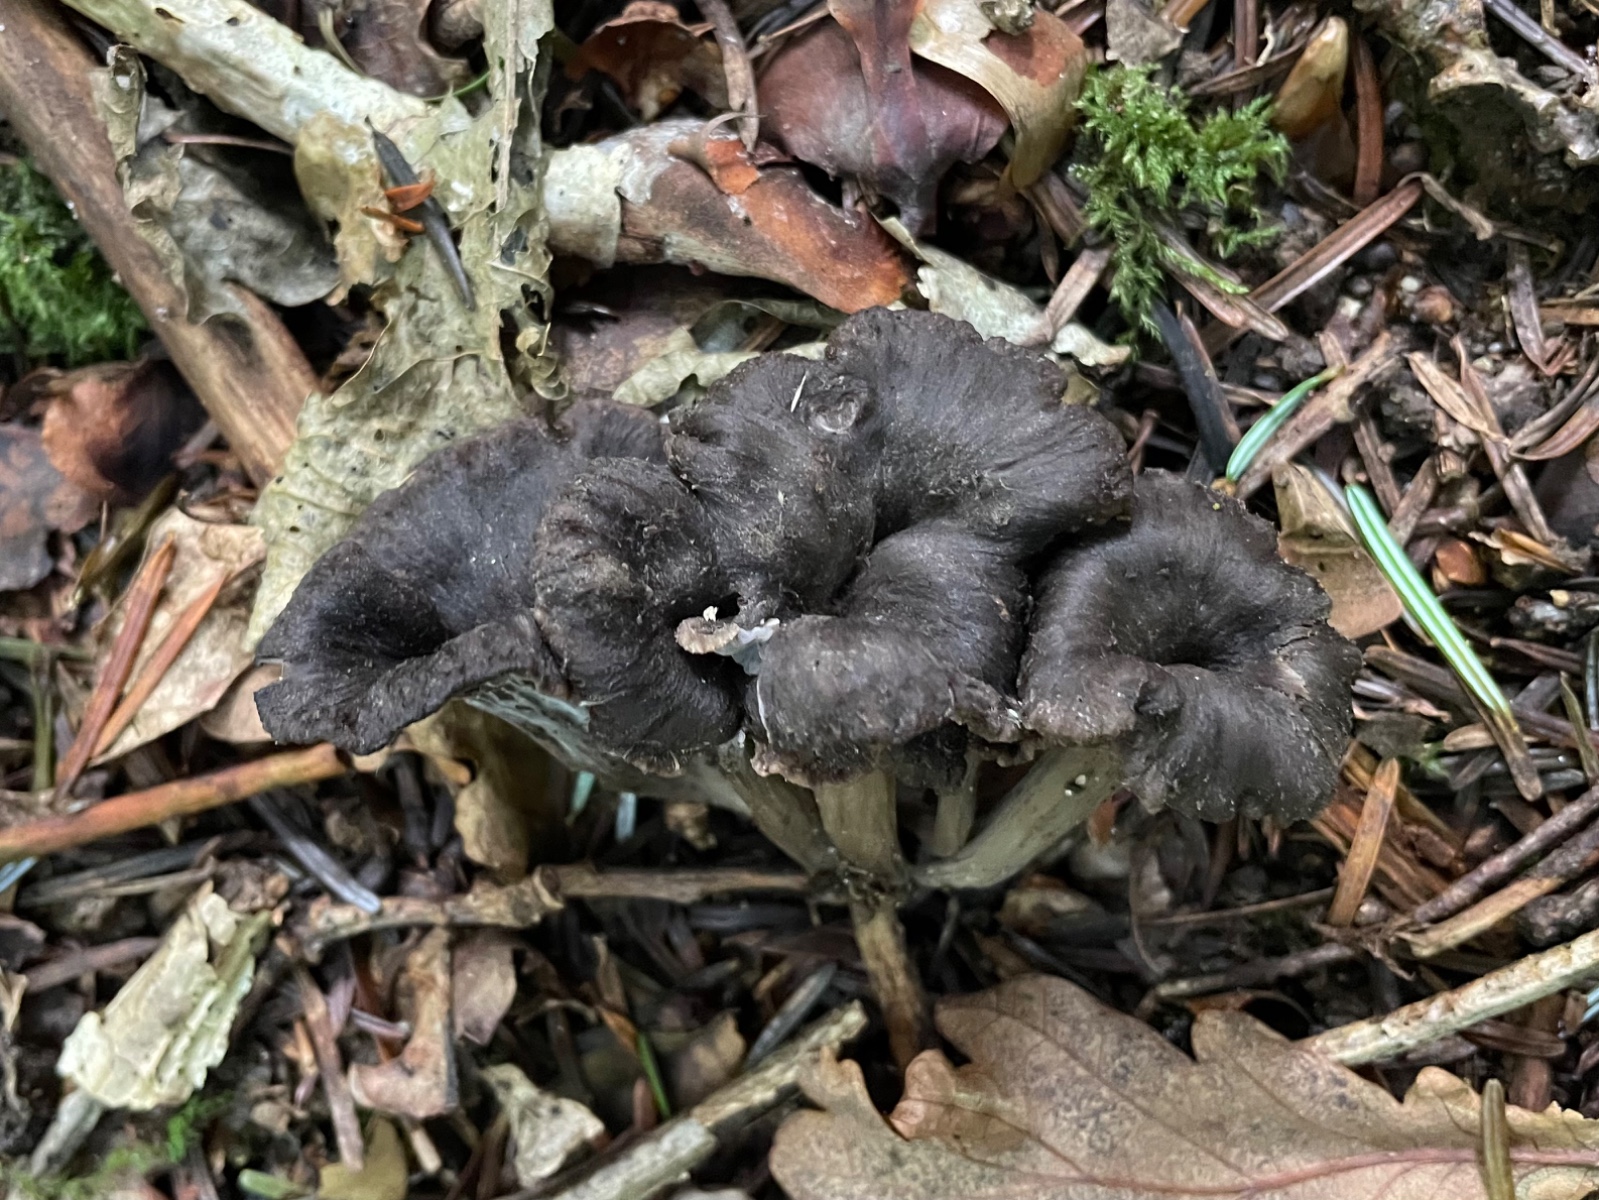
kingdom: Fungi
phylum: Basidiomycota
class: Agaricomycetes
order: Cantharellales
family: Hydnaceae
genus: Cantharellus
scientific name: Cantharellus cinereus
